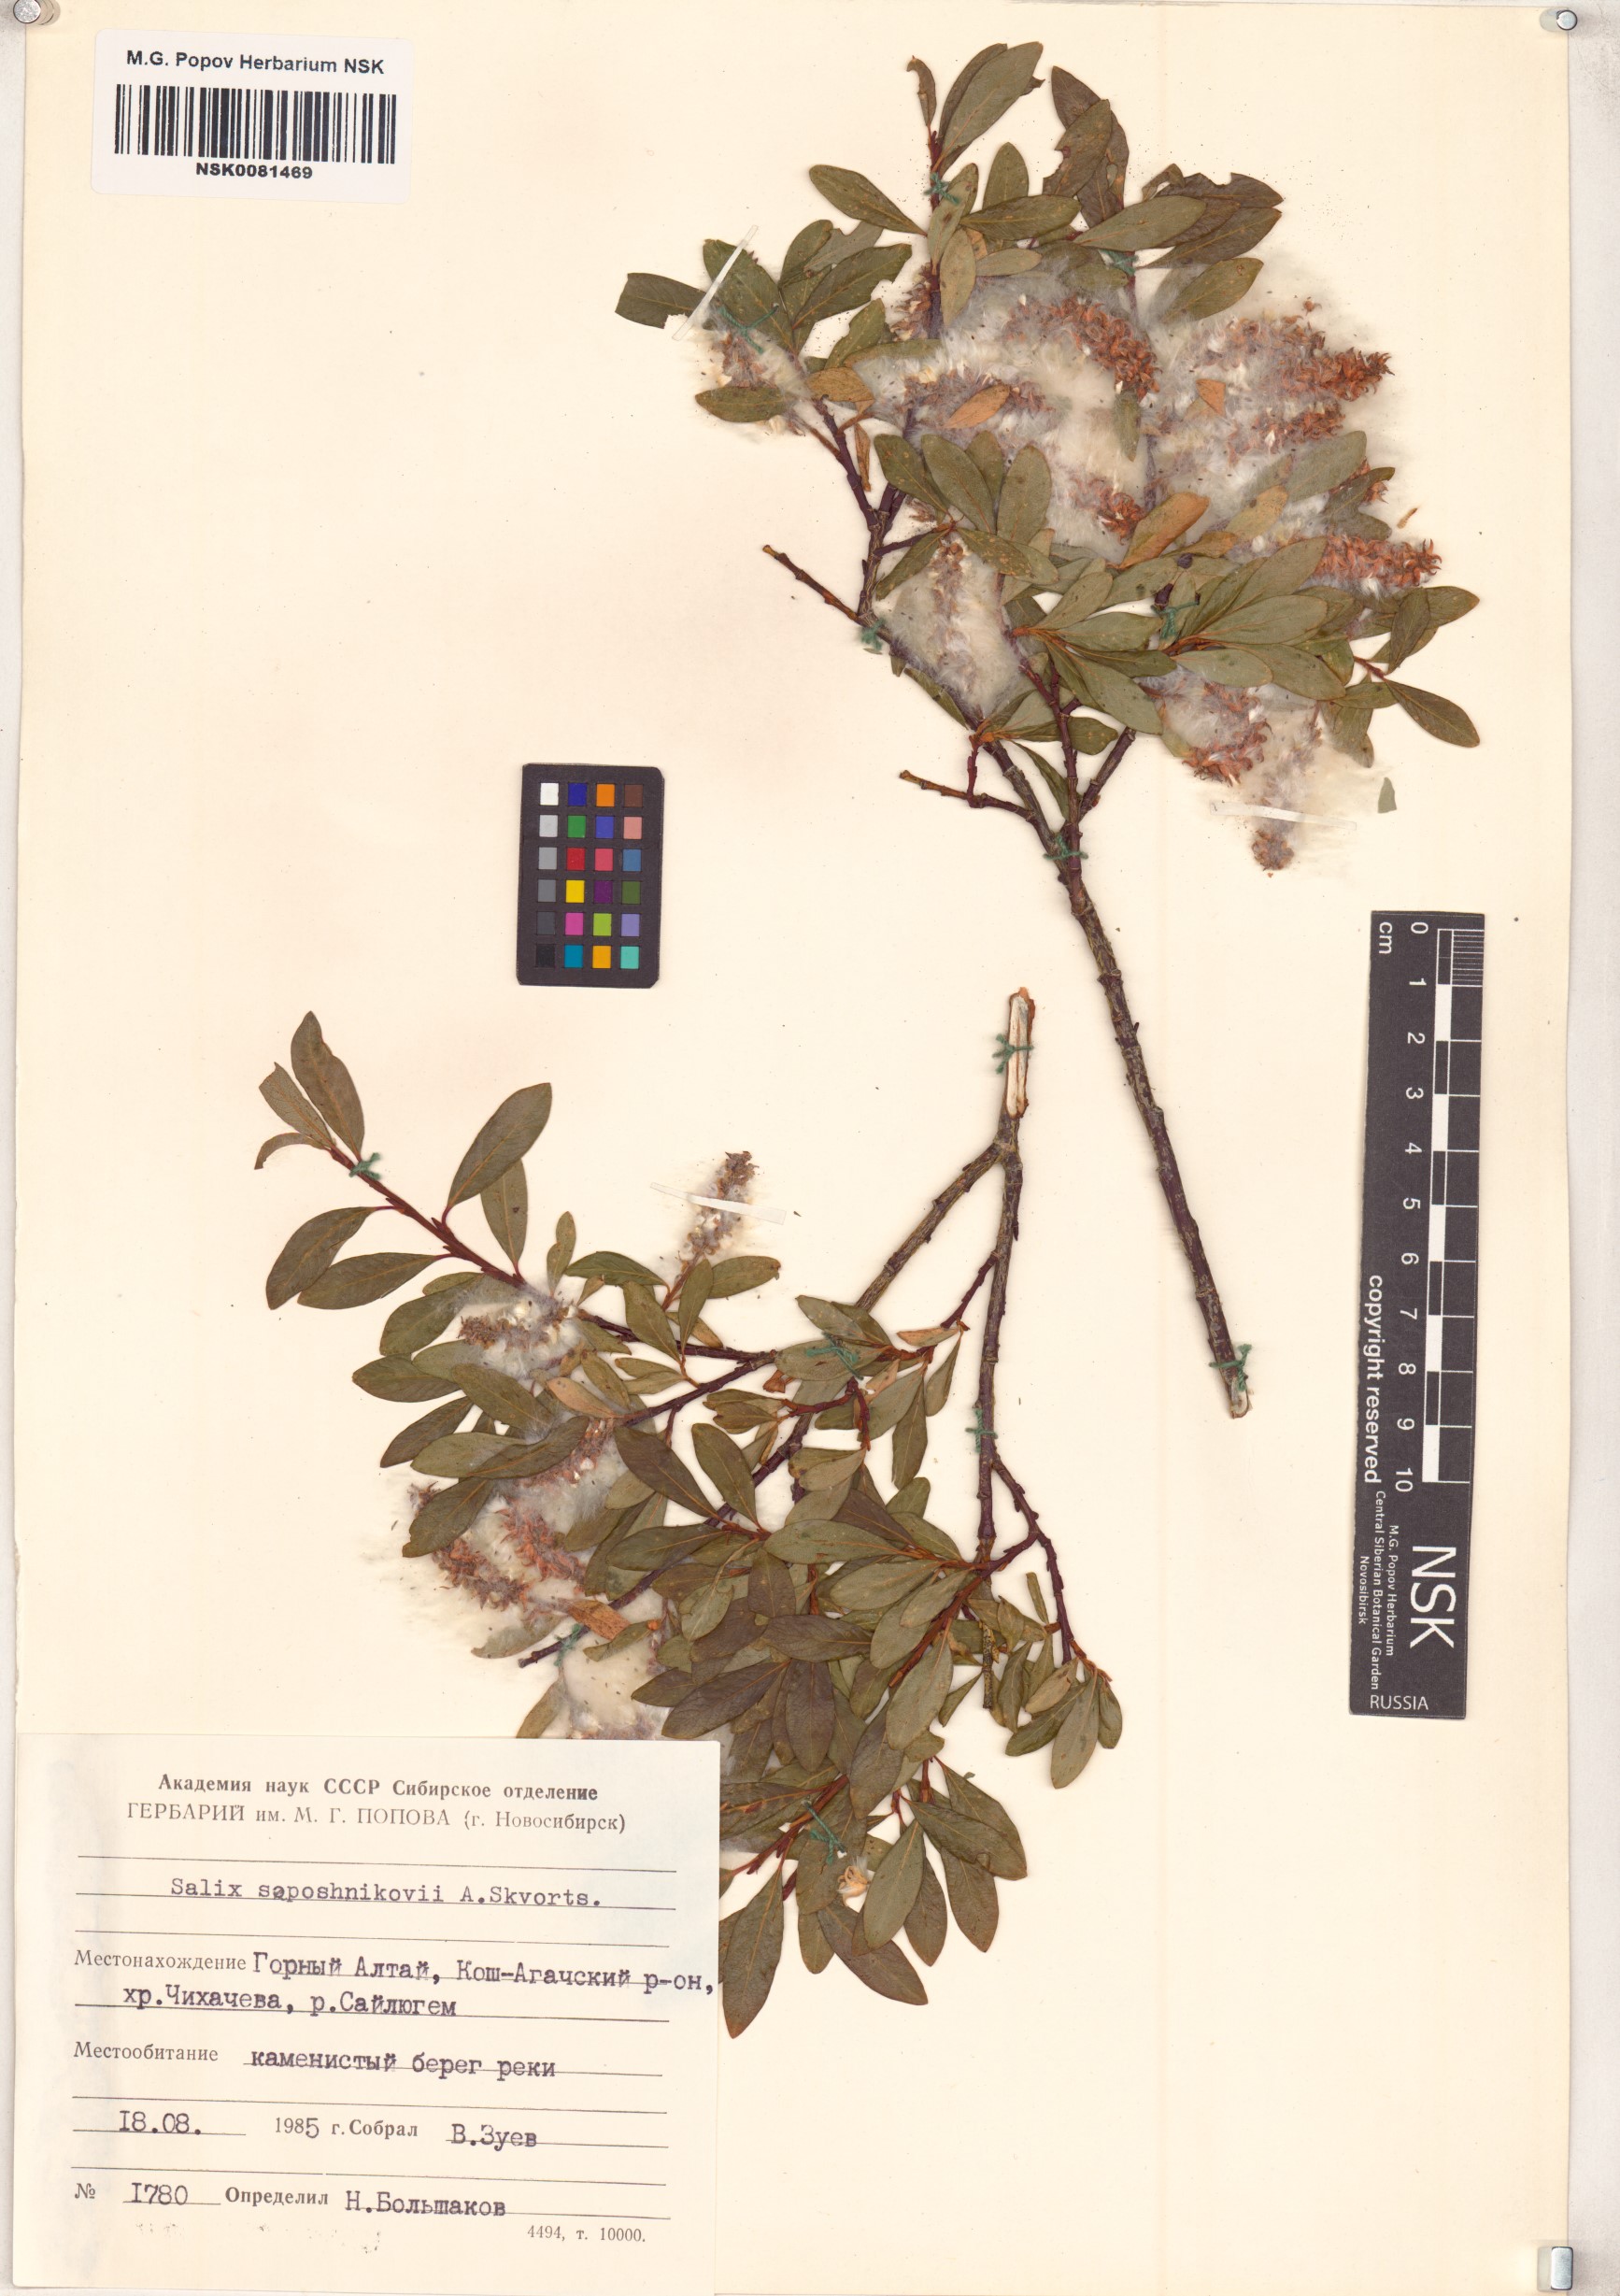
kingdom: Plantae
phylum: Tracheophyta
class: Magnoliopsida
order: Malpighiales
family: Salicaceae
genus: Salix
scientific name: Salix saposhnikovii
